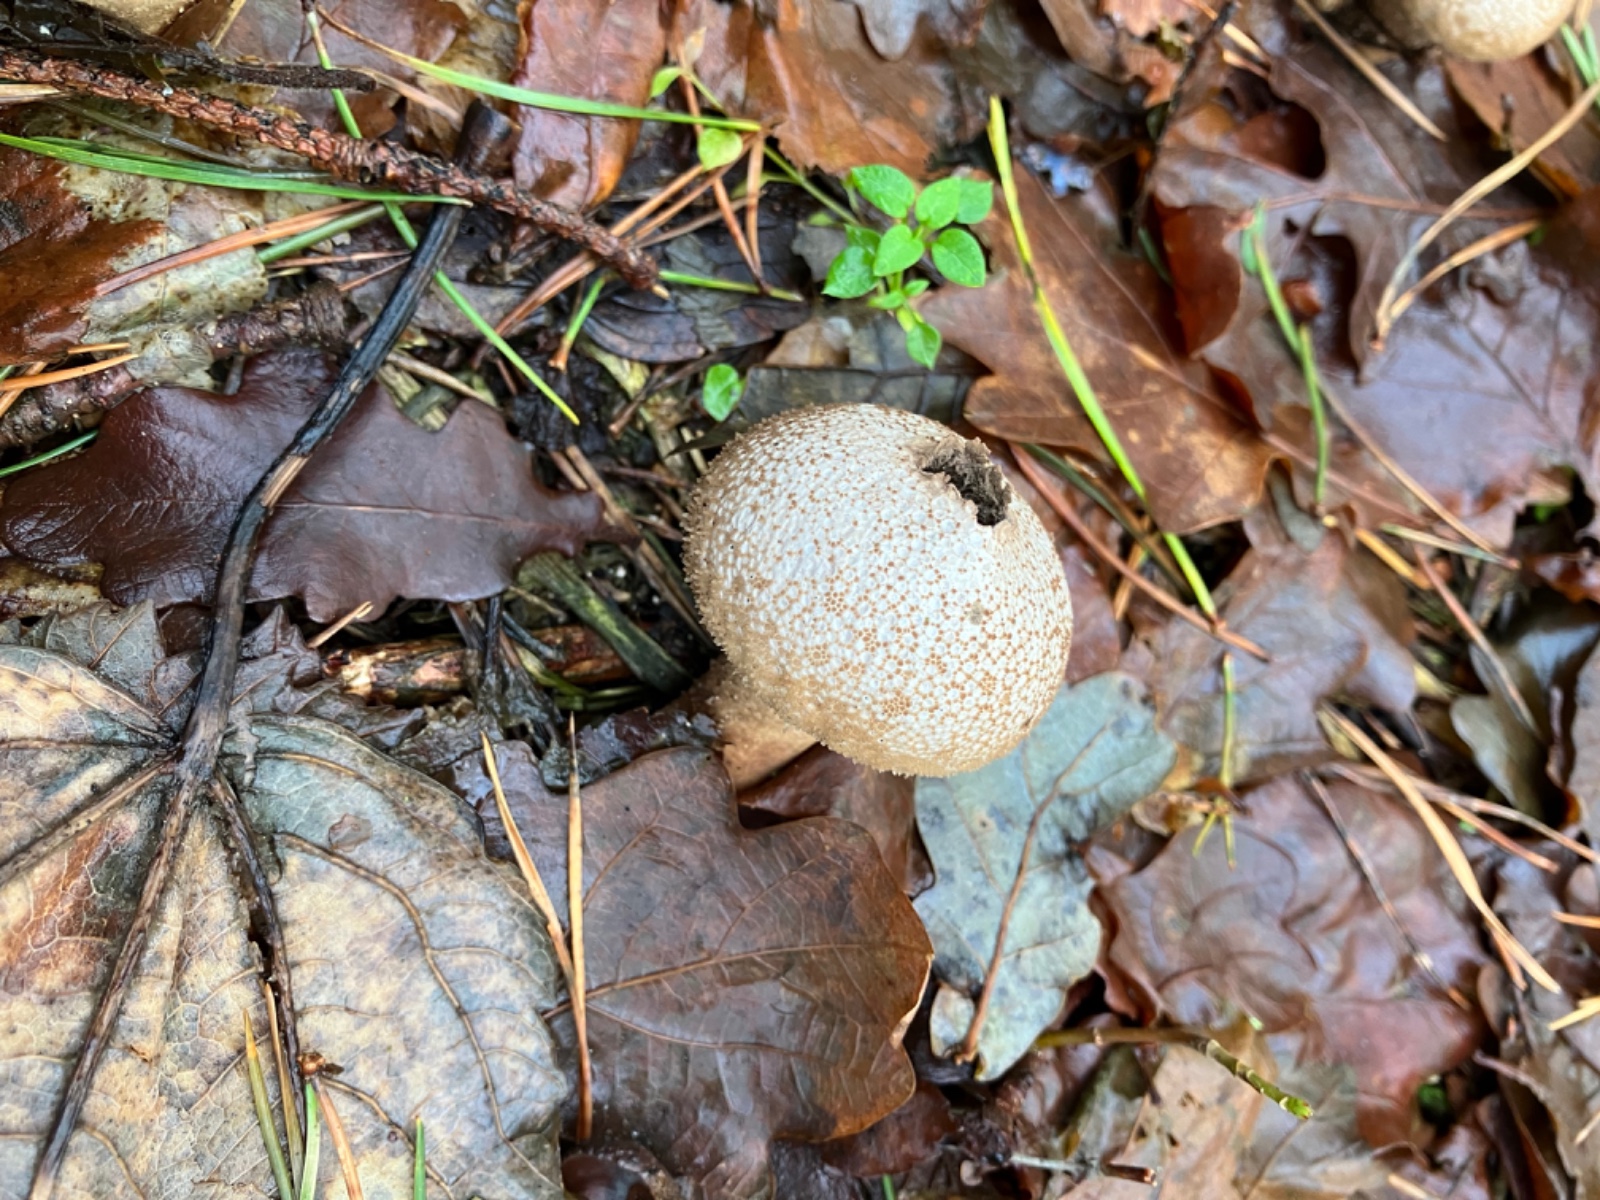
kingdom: Fungi
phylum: Basidiomycota
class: Agaricomycetes
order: Agaricales
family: Lycoperdaceae
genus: Lycoperdon
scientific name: Lycoperdon perlatum
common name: krystal-støvbold
